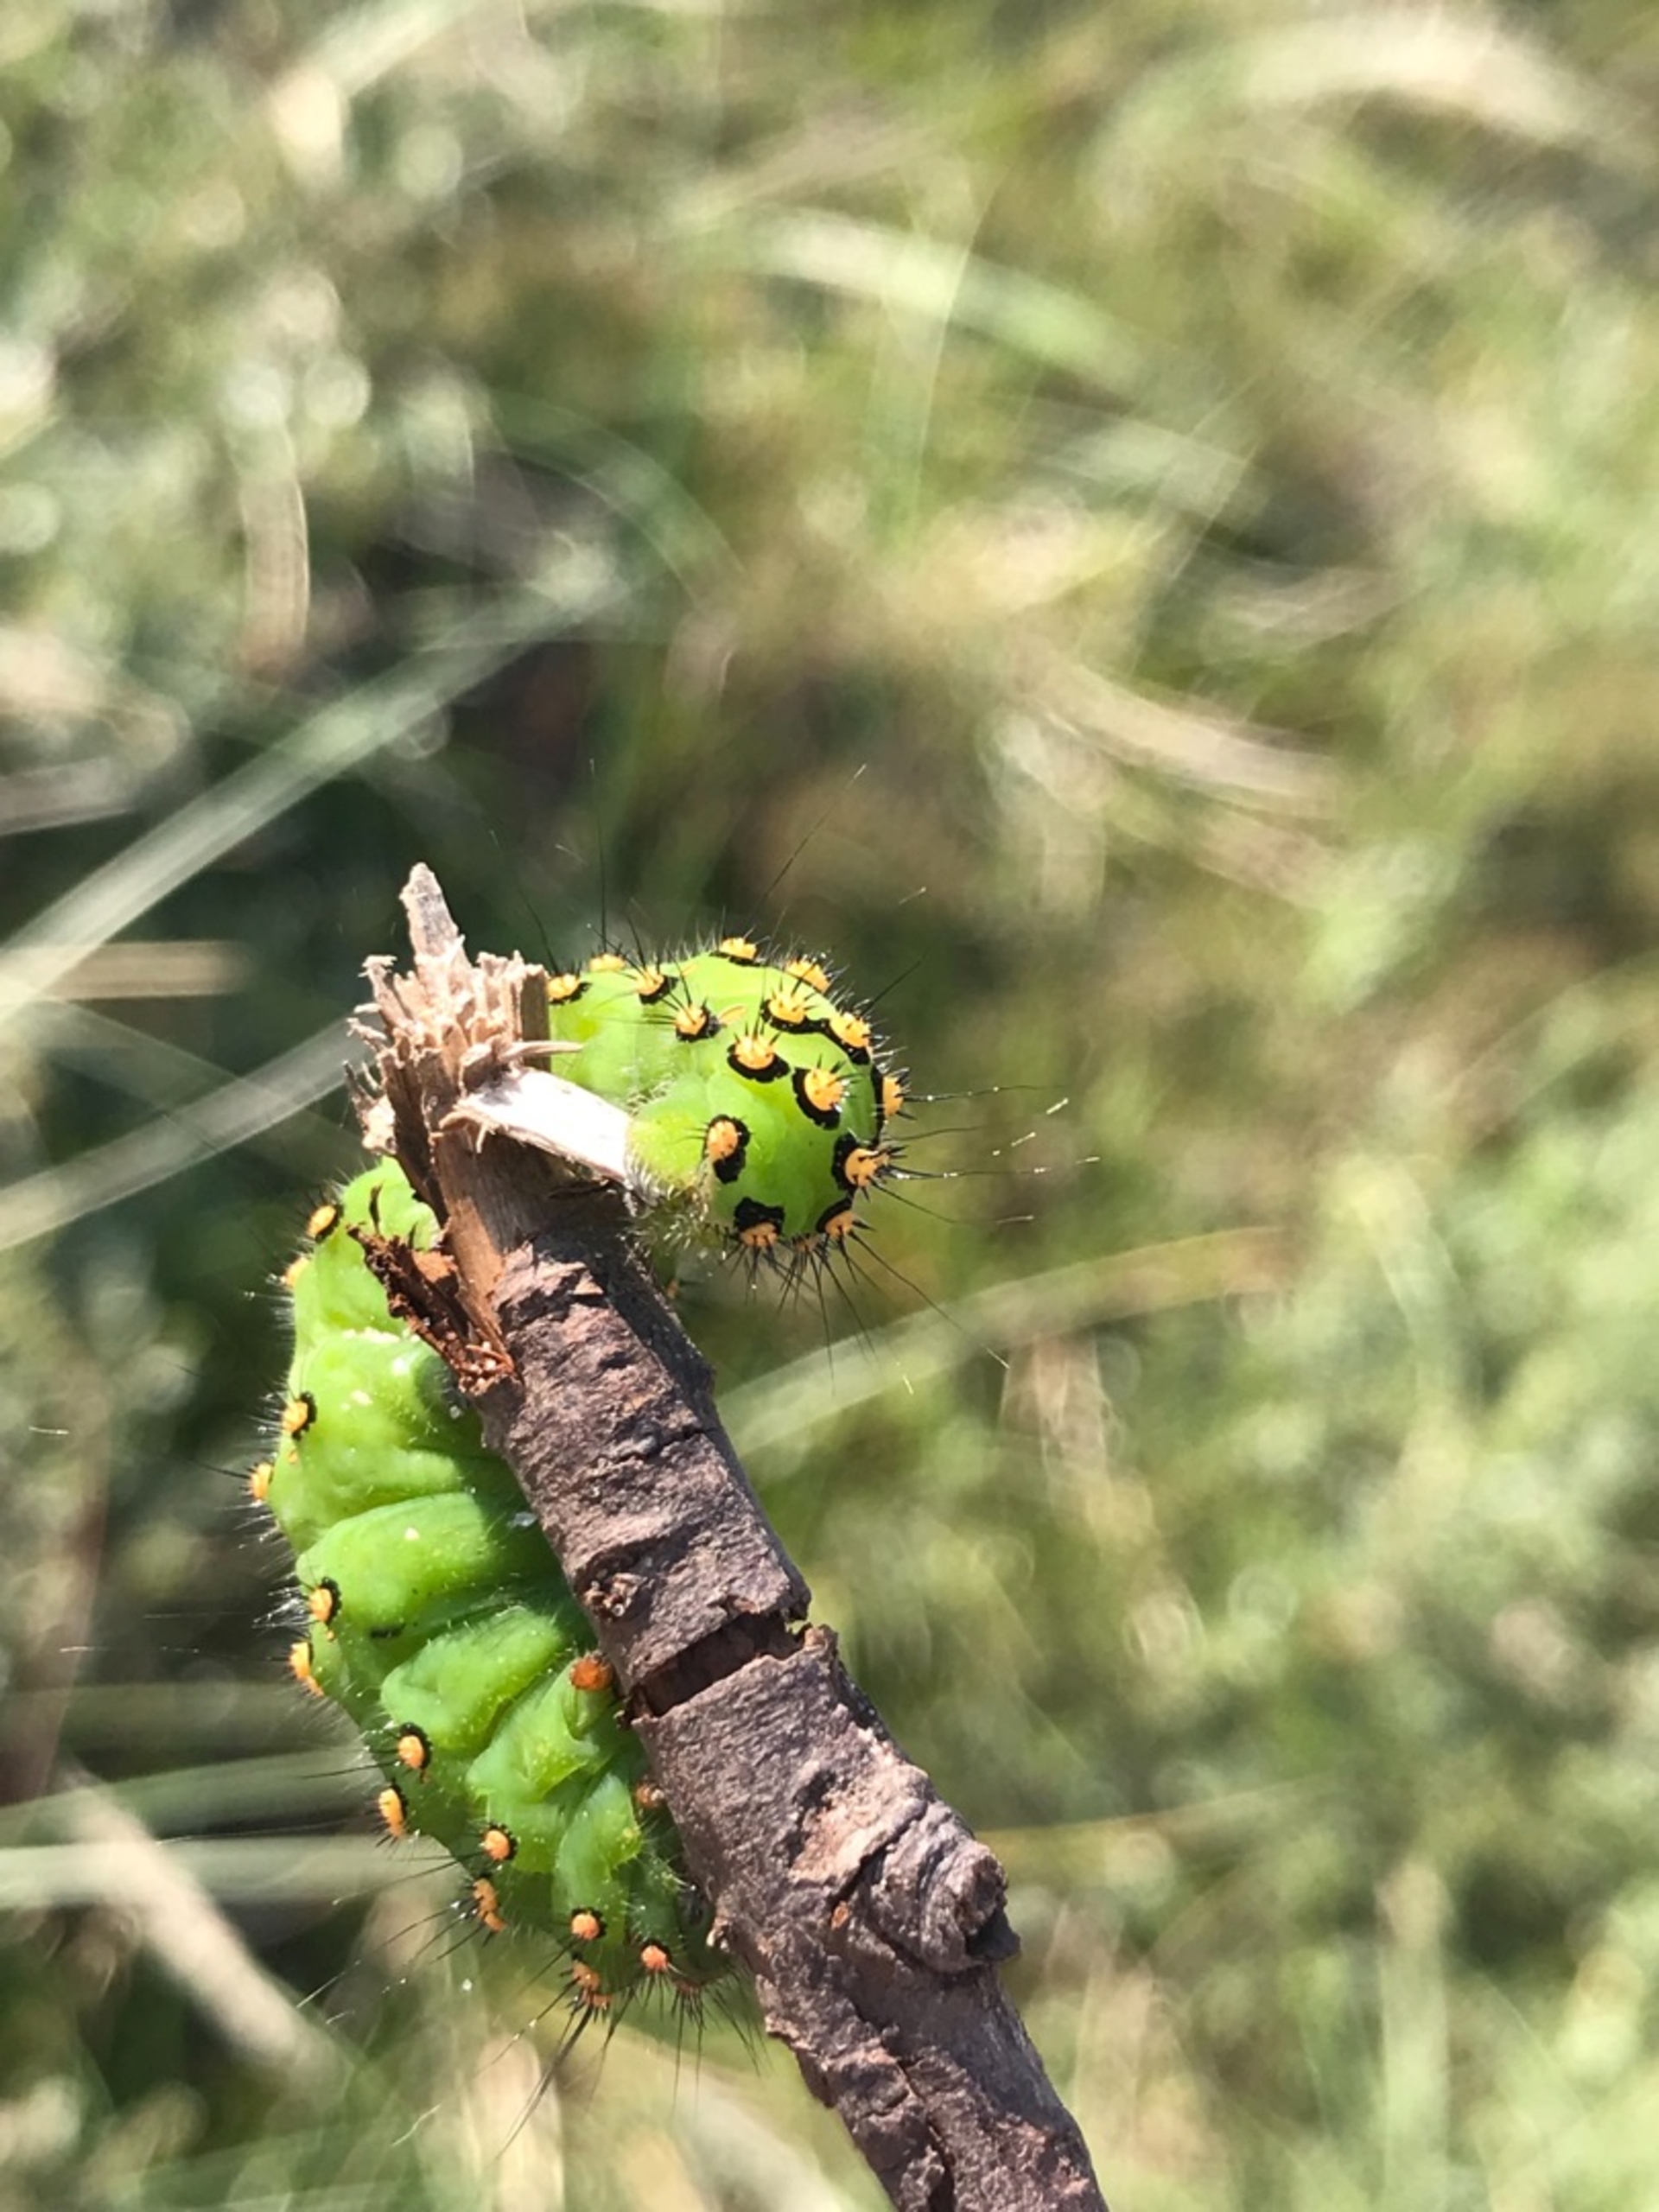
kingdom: Animalia
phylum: Arthropoda
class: Insecta
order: Lepidoptera
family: Saturniidae
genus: Saturnia
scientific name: Saturnia pavonia
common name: Lille natpåfugleøje
